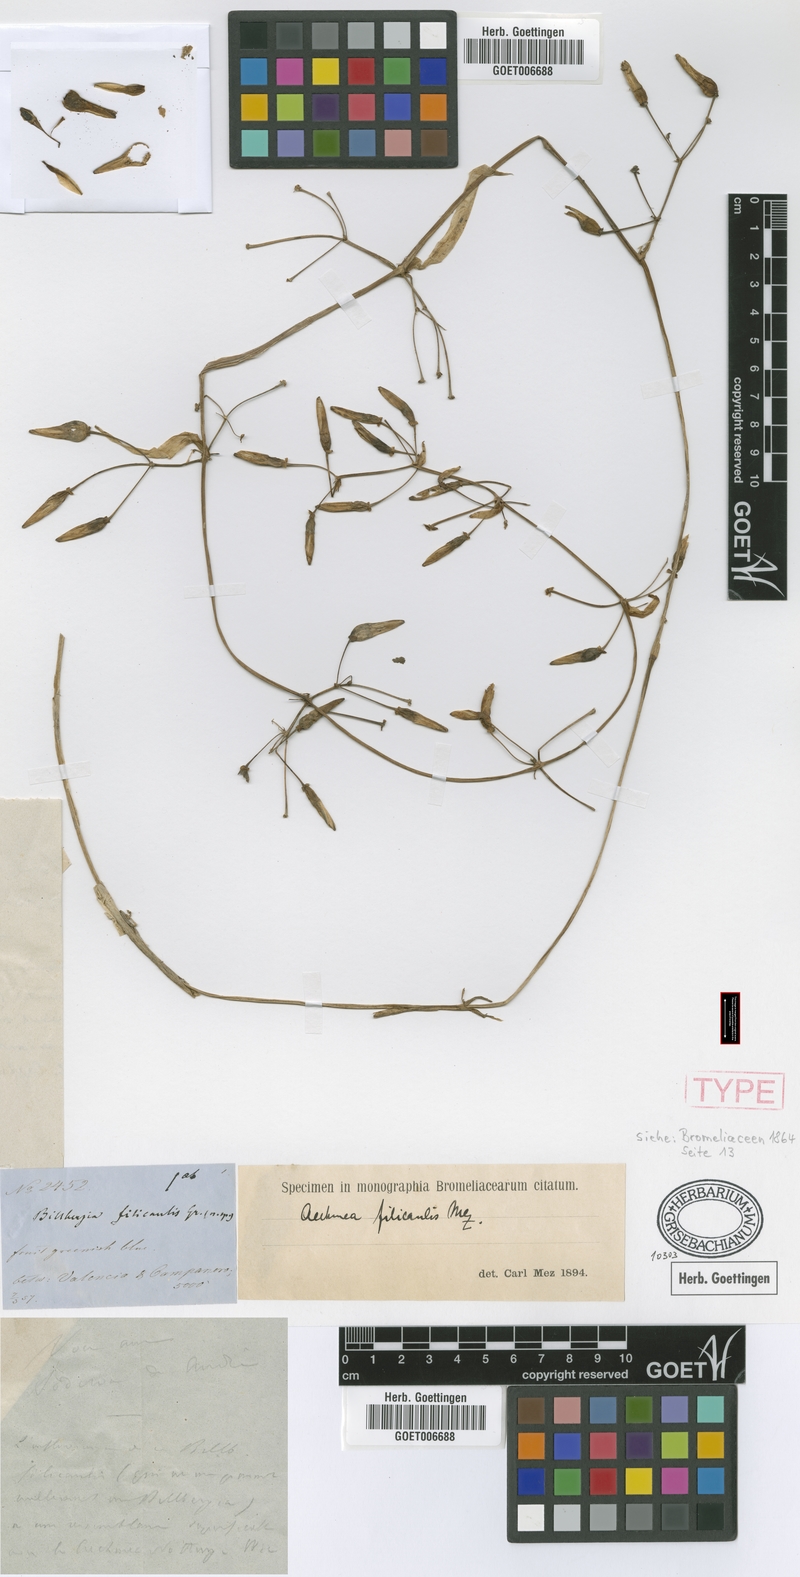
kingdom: Plantae
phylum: Tracheophyta
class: Liliopsida
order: Poales
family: Bromeliaceae
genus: Aechmea
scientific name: Aechmea filicaulis
